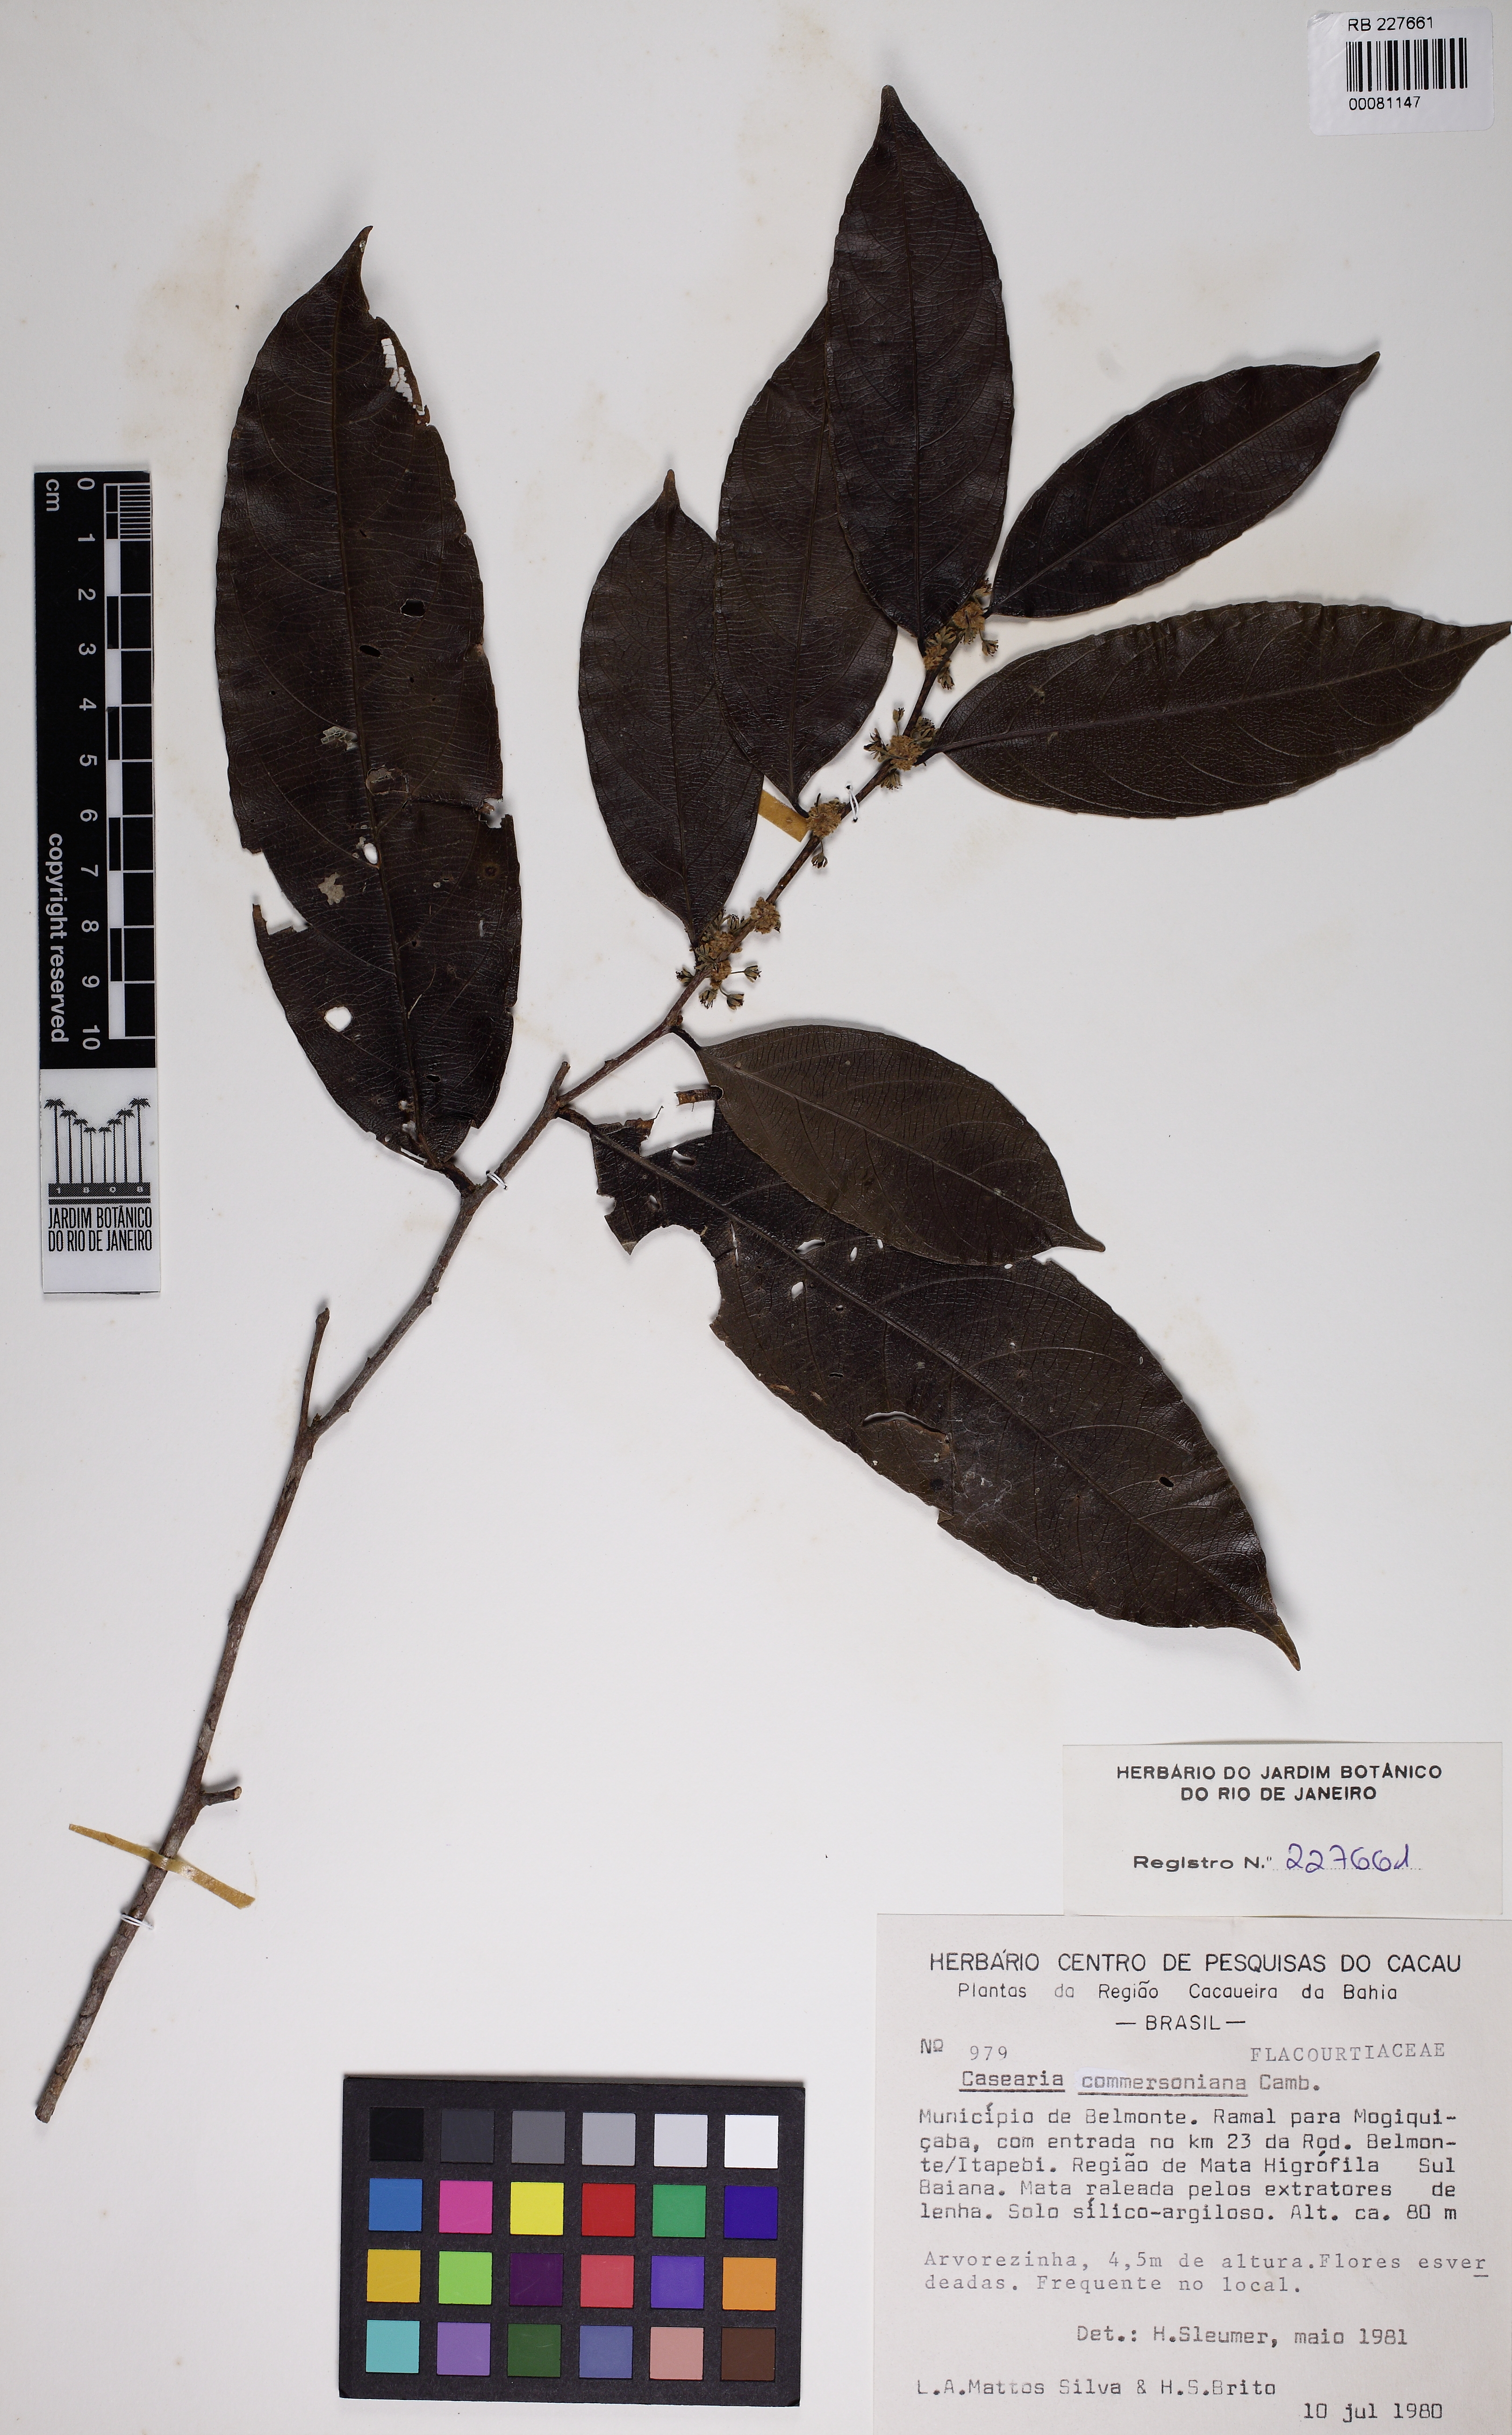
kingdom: Plantae
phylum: Tracheophyta
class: Magnoliopsida
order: Malpighiales
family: Salicaceae
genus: Piparea
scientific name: Piparea dentata
